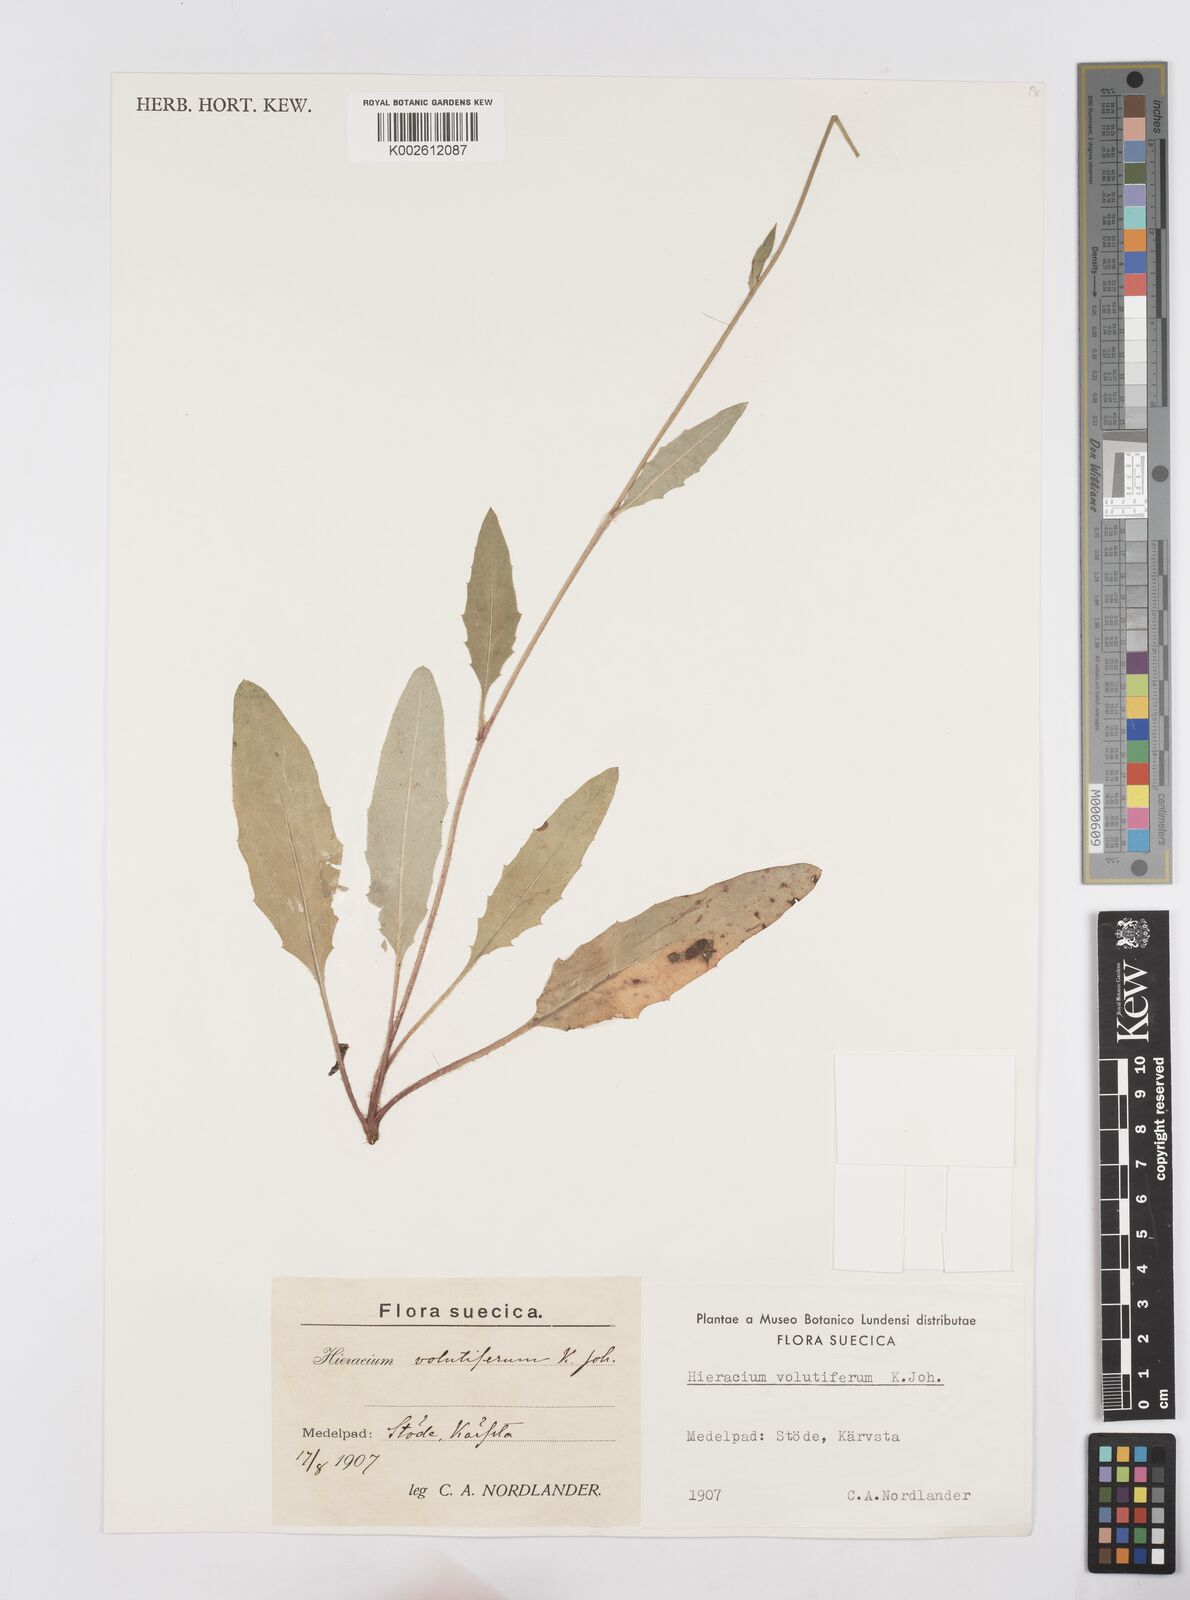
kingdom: Plantae
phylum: Tracheophyta
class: Magnoliopsida
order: Asterales
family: Asteraceae
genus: Hieracium
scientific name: Hieracium volutiferum
